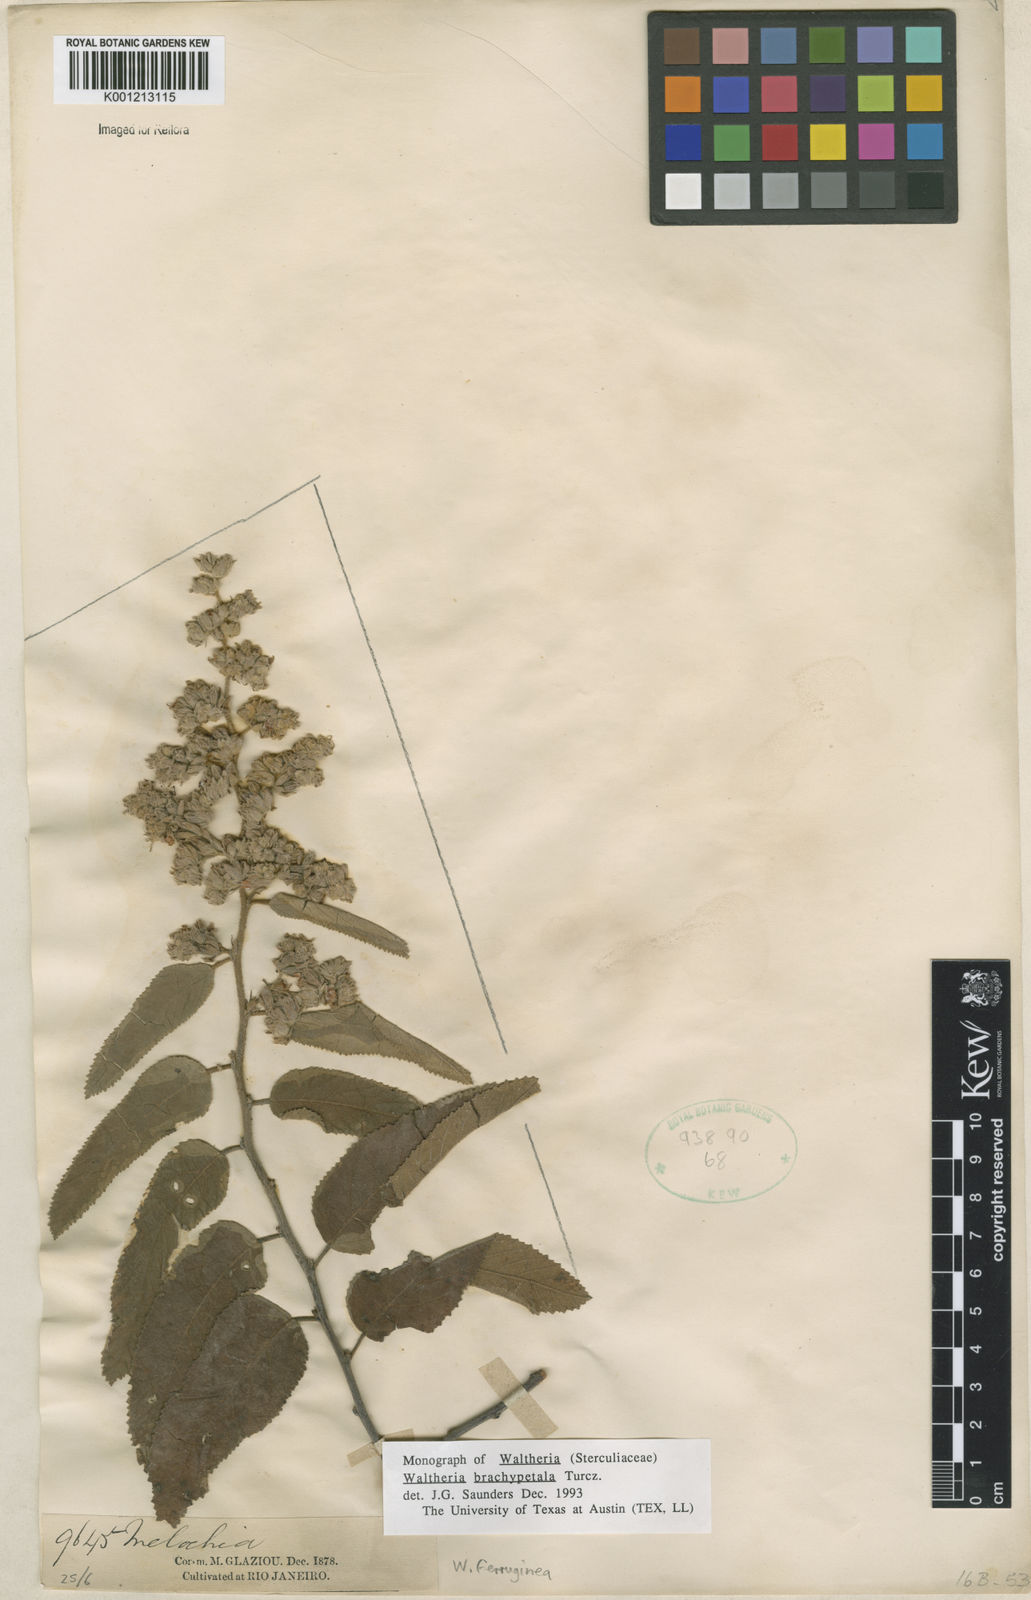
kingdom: Plantae
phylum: Tracheophyta
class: Magnoliopsida
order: Malvales
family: Malvaceae
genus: Waltheria
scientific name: Waltheria ferruginea
